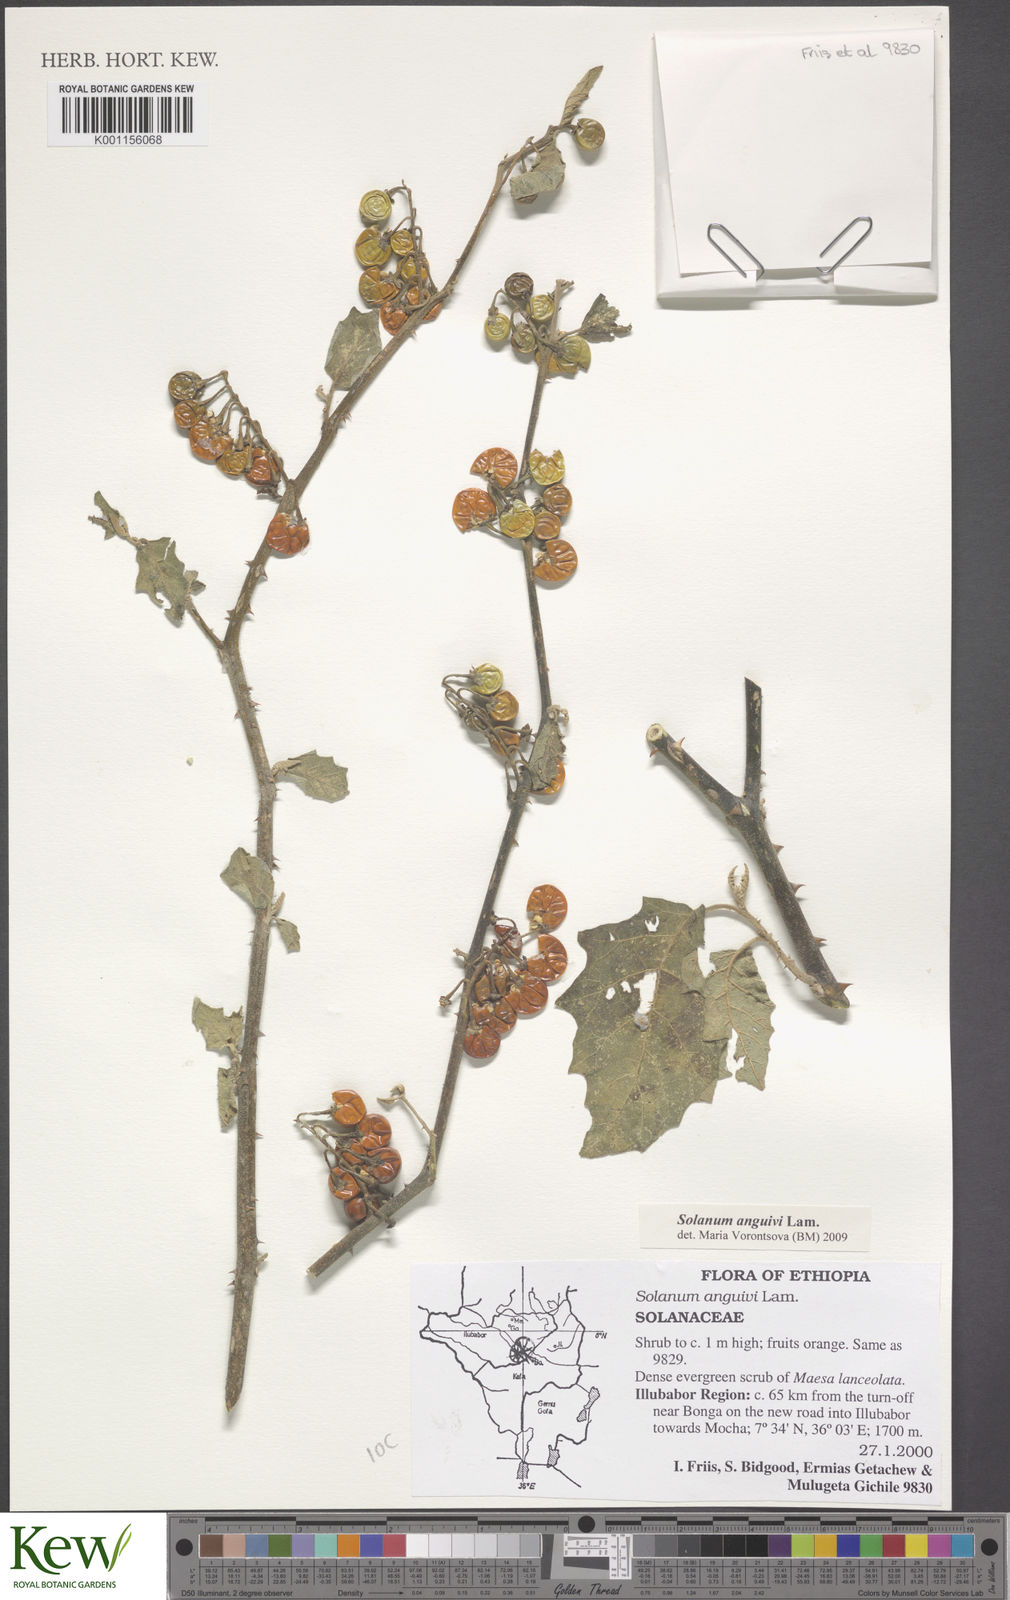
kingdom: Plantae
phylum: Tracheophyta
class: Magnoliopsida
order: Solanales
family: Solanaceae
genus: Solanum
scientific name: Solanum anguivi
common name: Forest bitterberry
